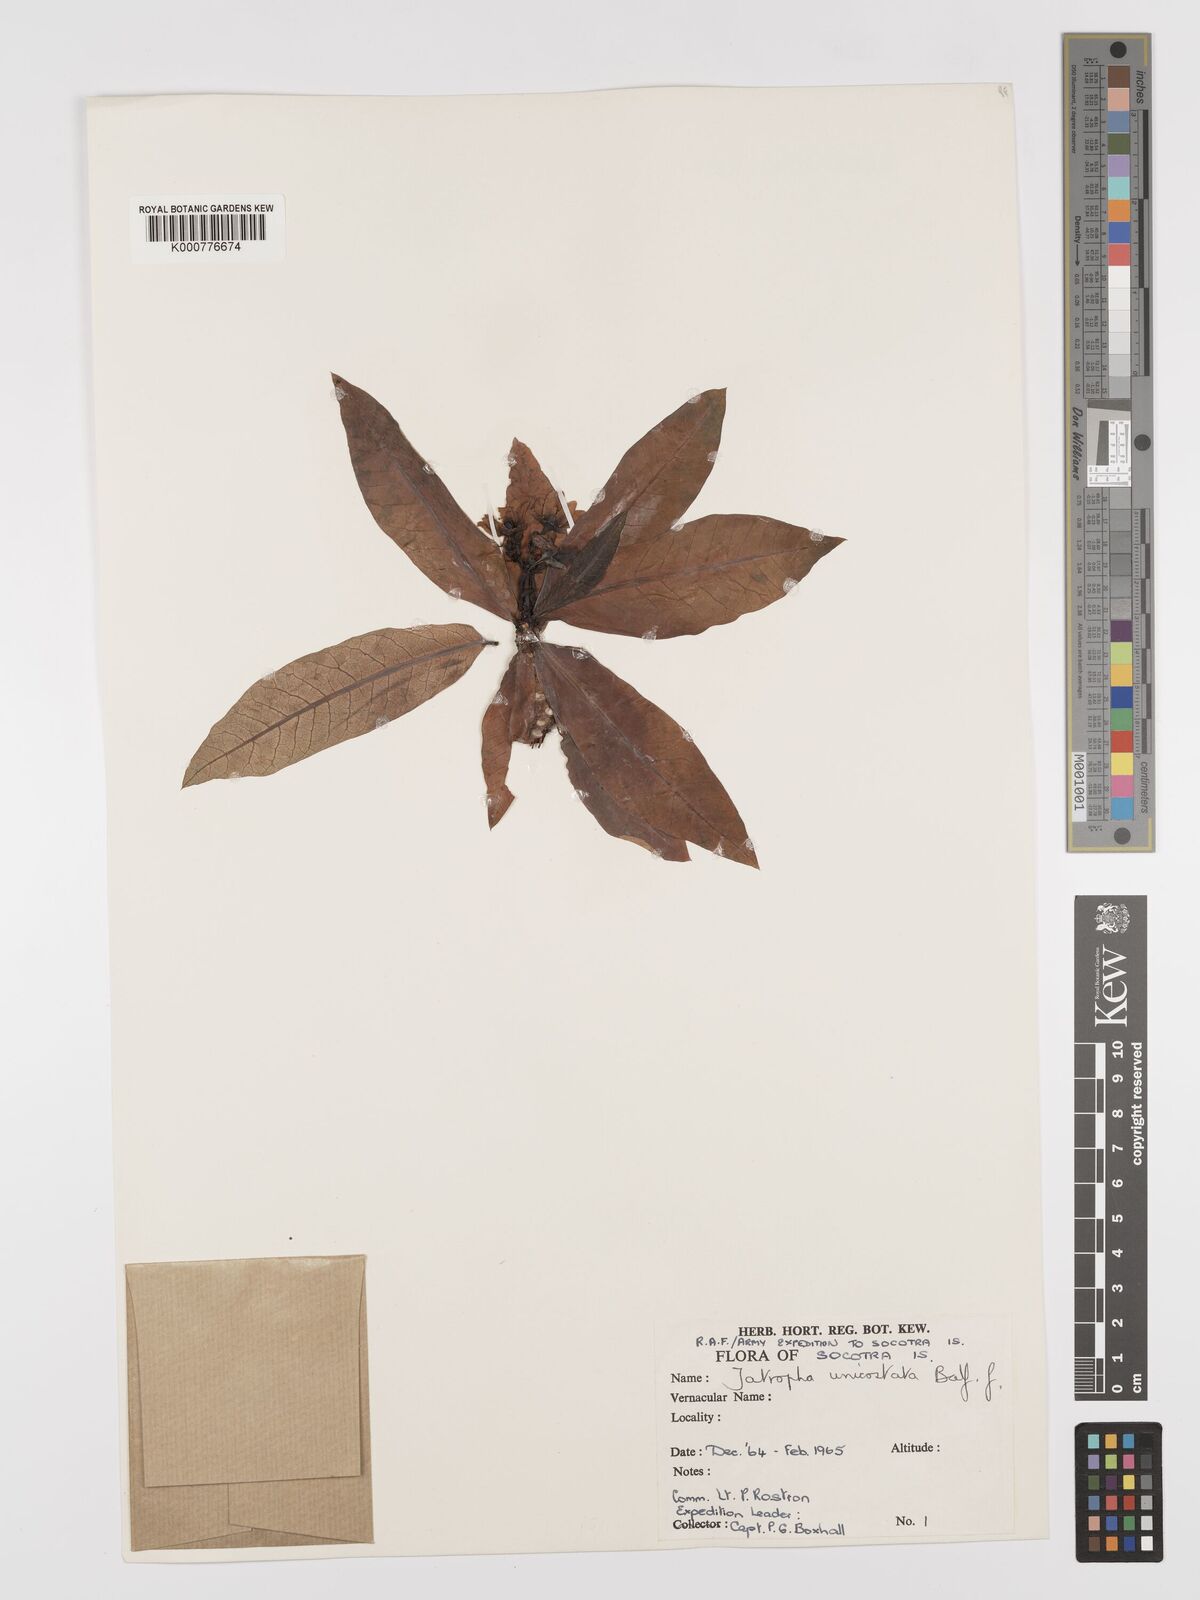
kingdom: Plantae
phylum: Tracheophyta
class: Magnoliopsida
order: Malpighiales
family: Euphorbiaceae
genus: Jatropha
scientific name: Jatropha unicostata
